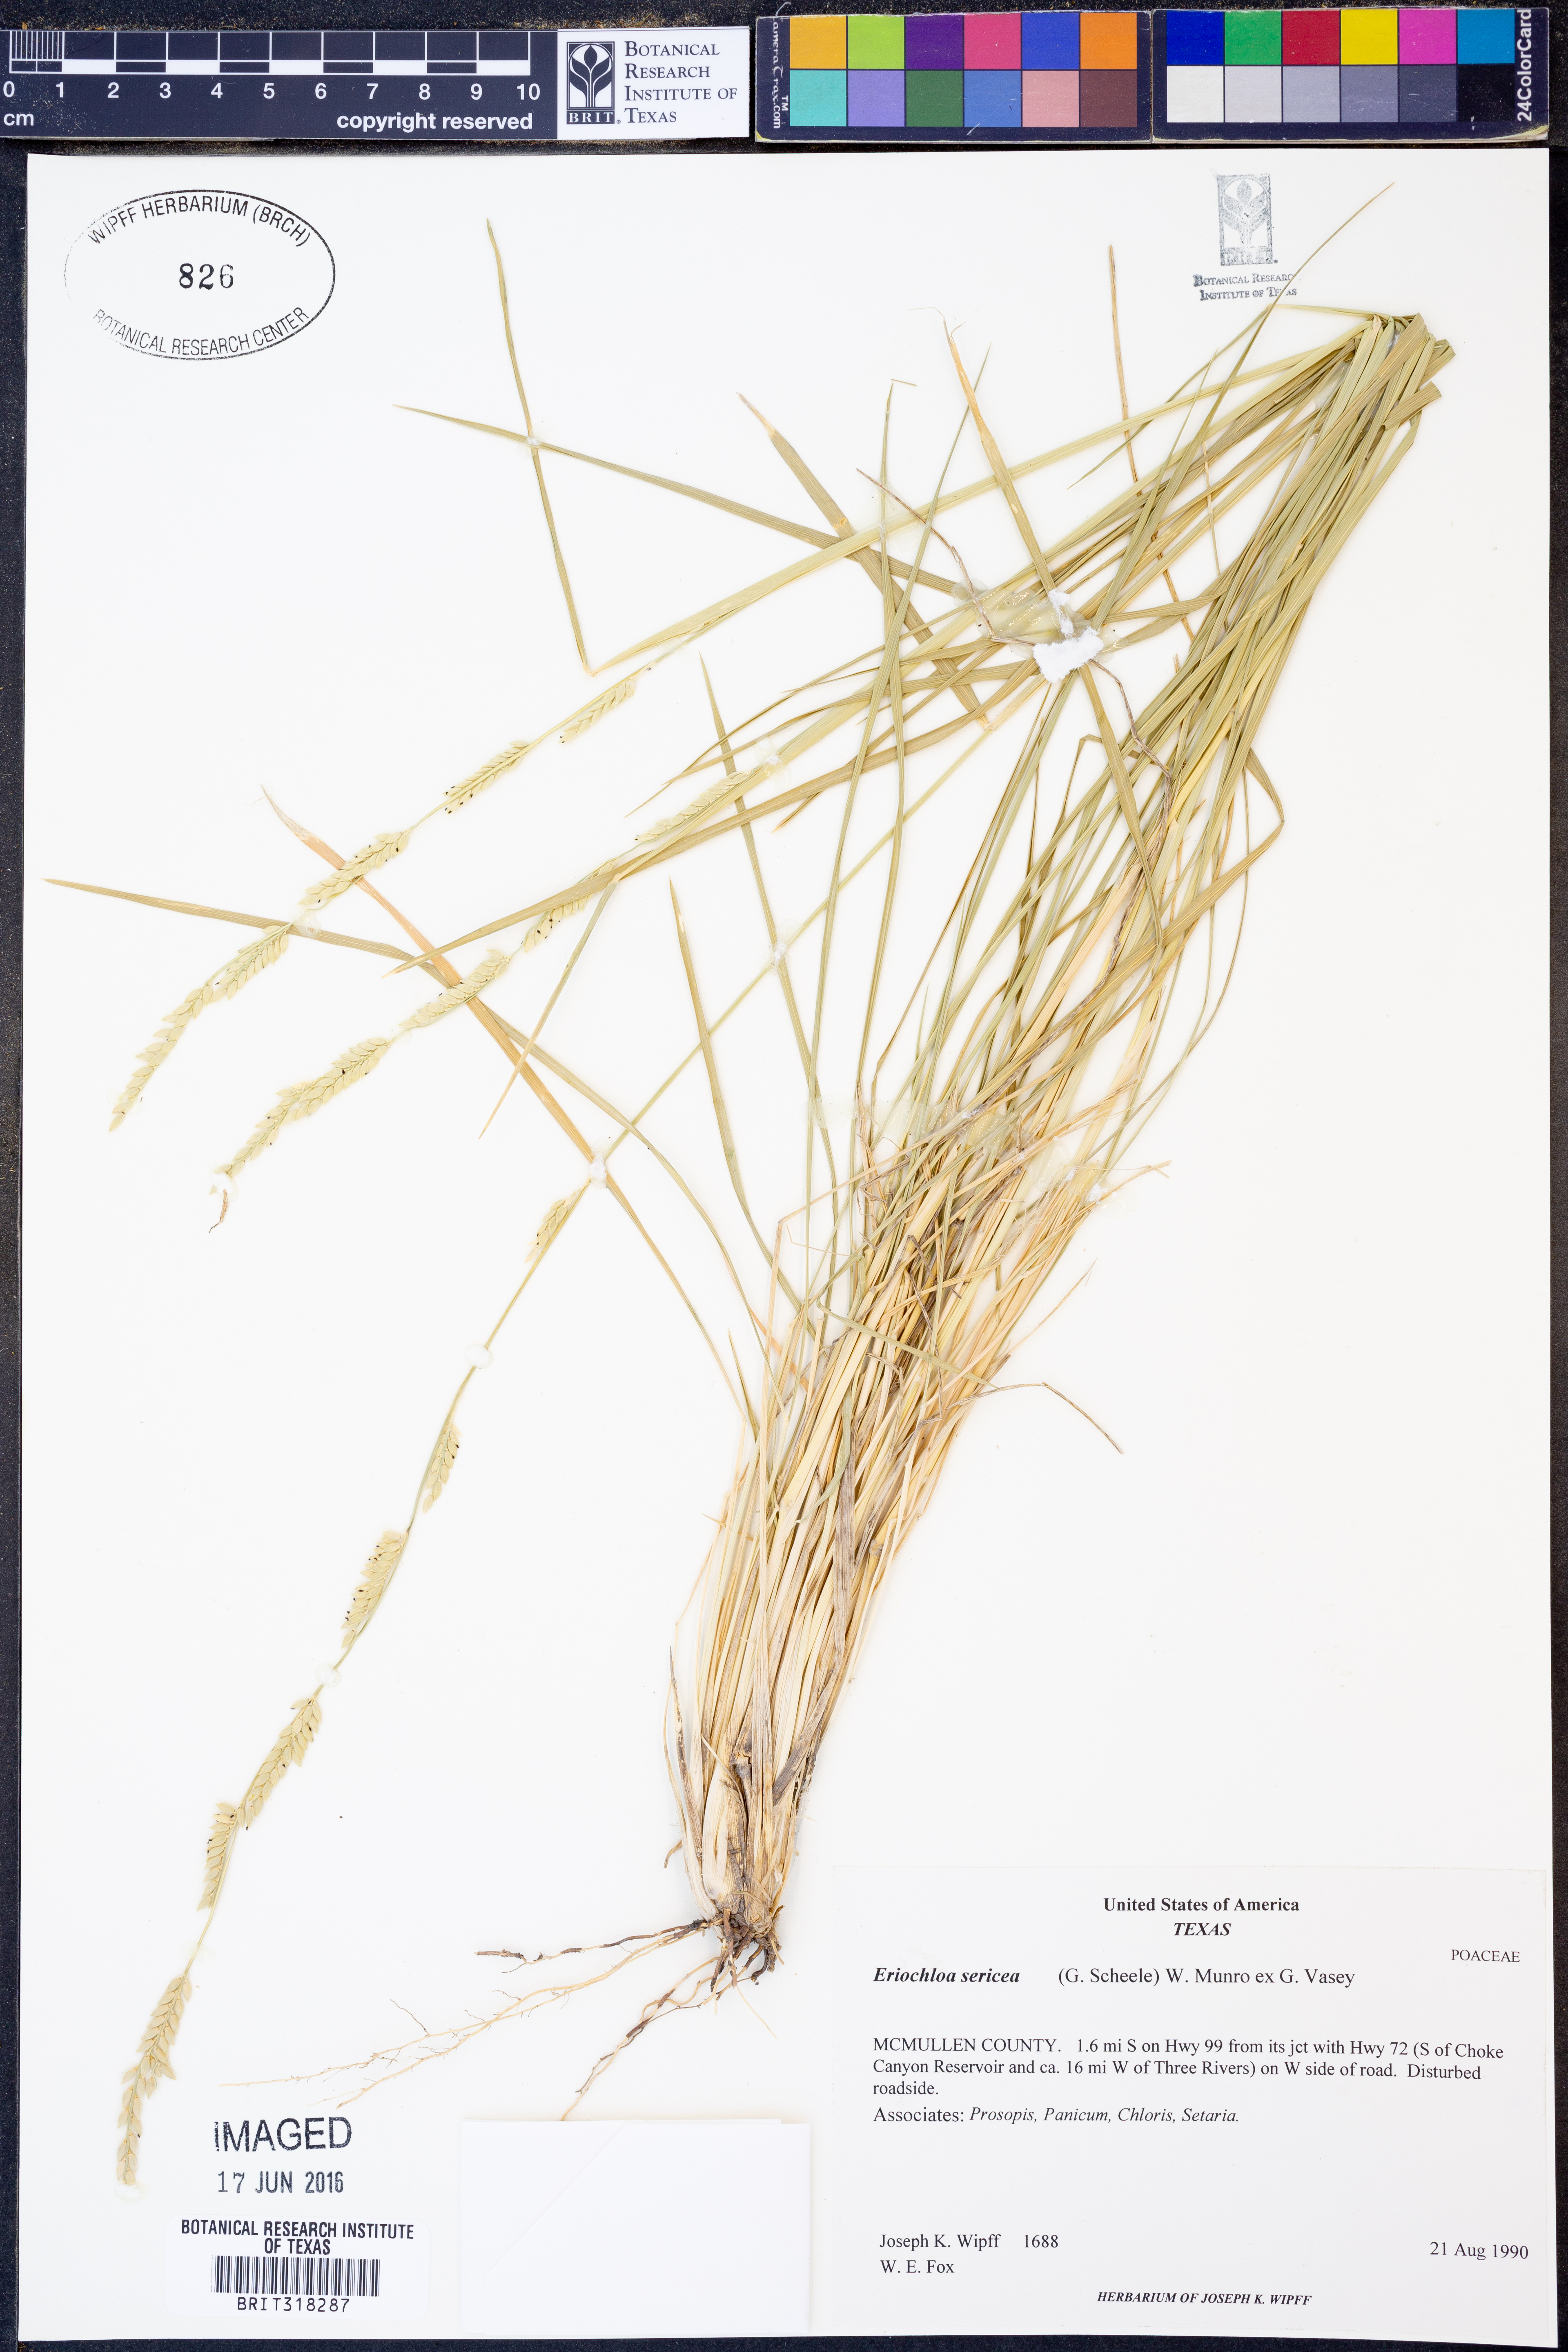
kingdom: Plantae
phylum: Tracheophyta
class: Liliopsida
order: Poales
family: Poaceae
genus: Eriochloa
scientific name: Eriochloa sericea
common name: Texas cup grass
